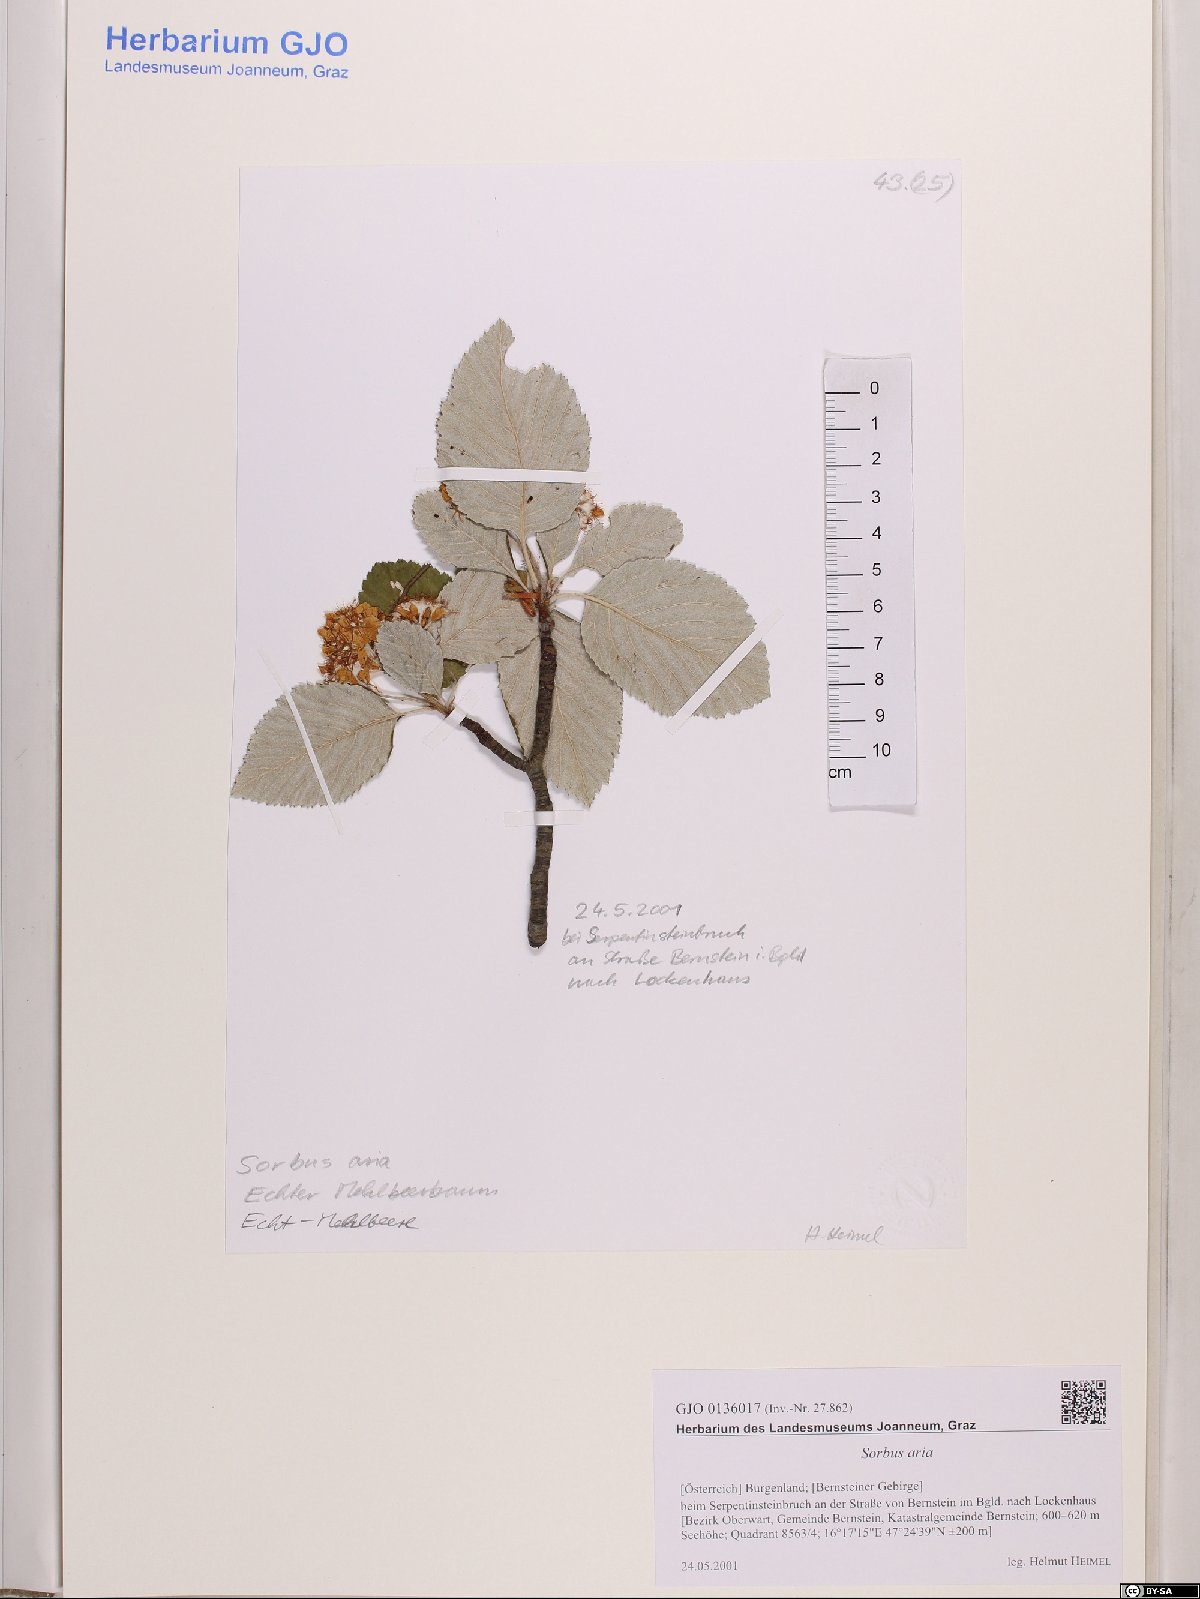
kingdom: Plantae
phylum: Tracheophyta
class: Magnoliopsida
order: Rosales
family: Rosaceae
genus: Aria
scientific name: Aria edulis
